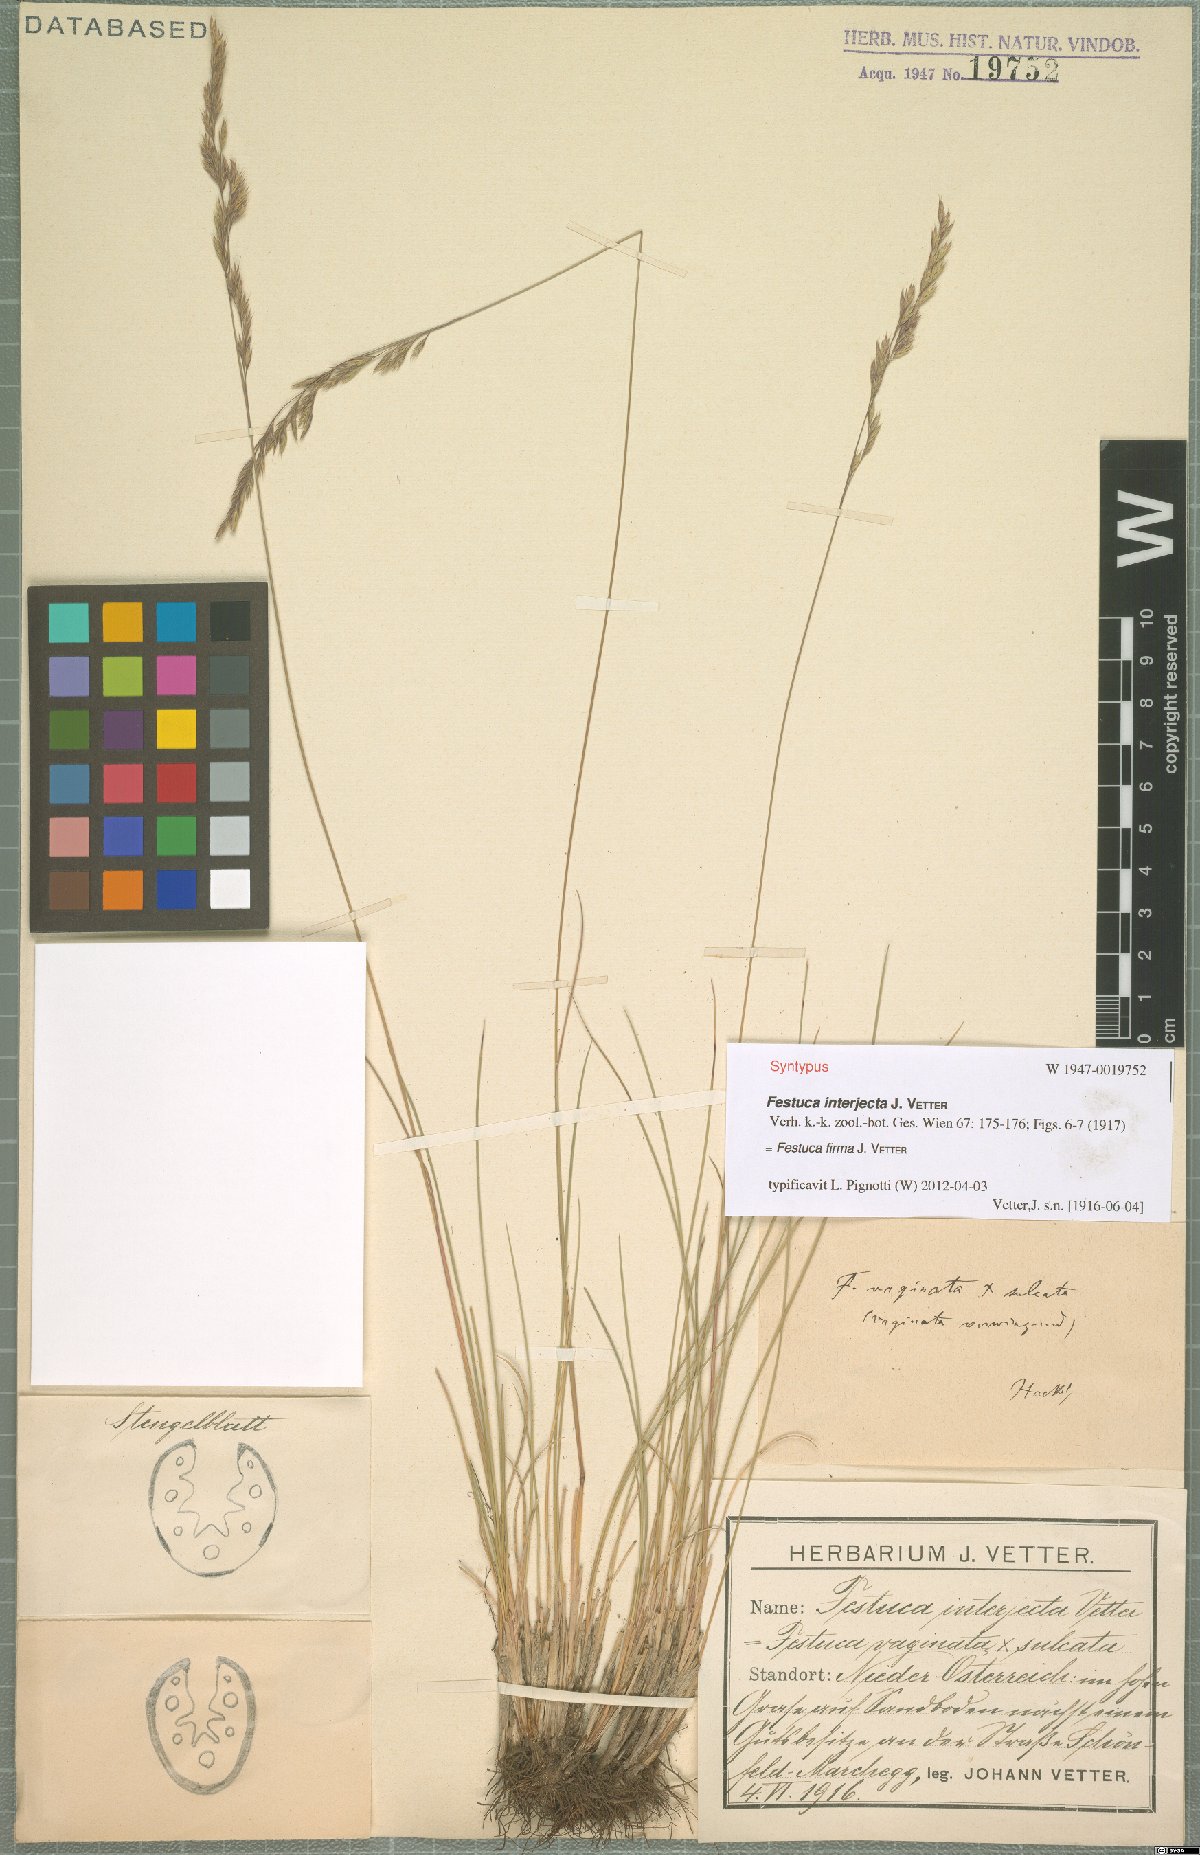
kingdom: Plantae
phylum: Tracheophyta
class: Liliopsida
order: Poales
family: Poaceae
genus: Festuca
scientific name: Festuca pulchra
